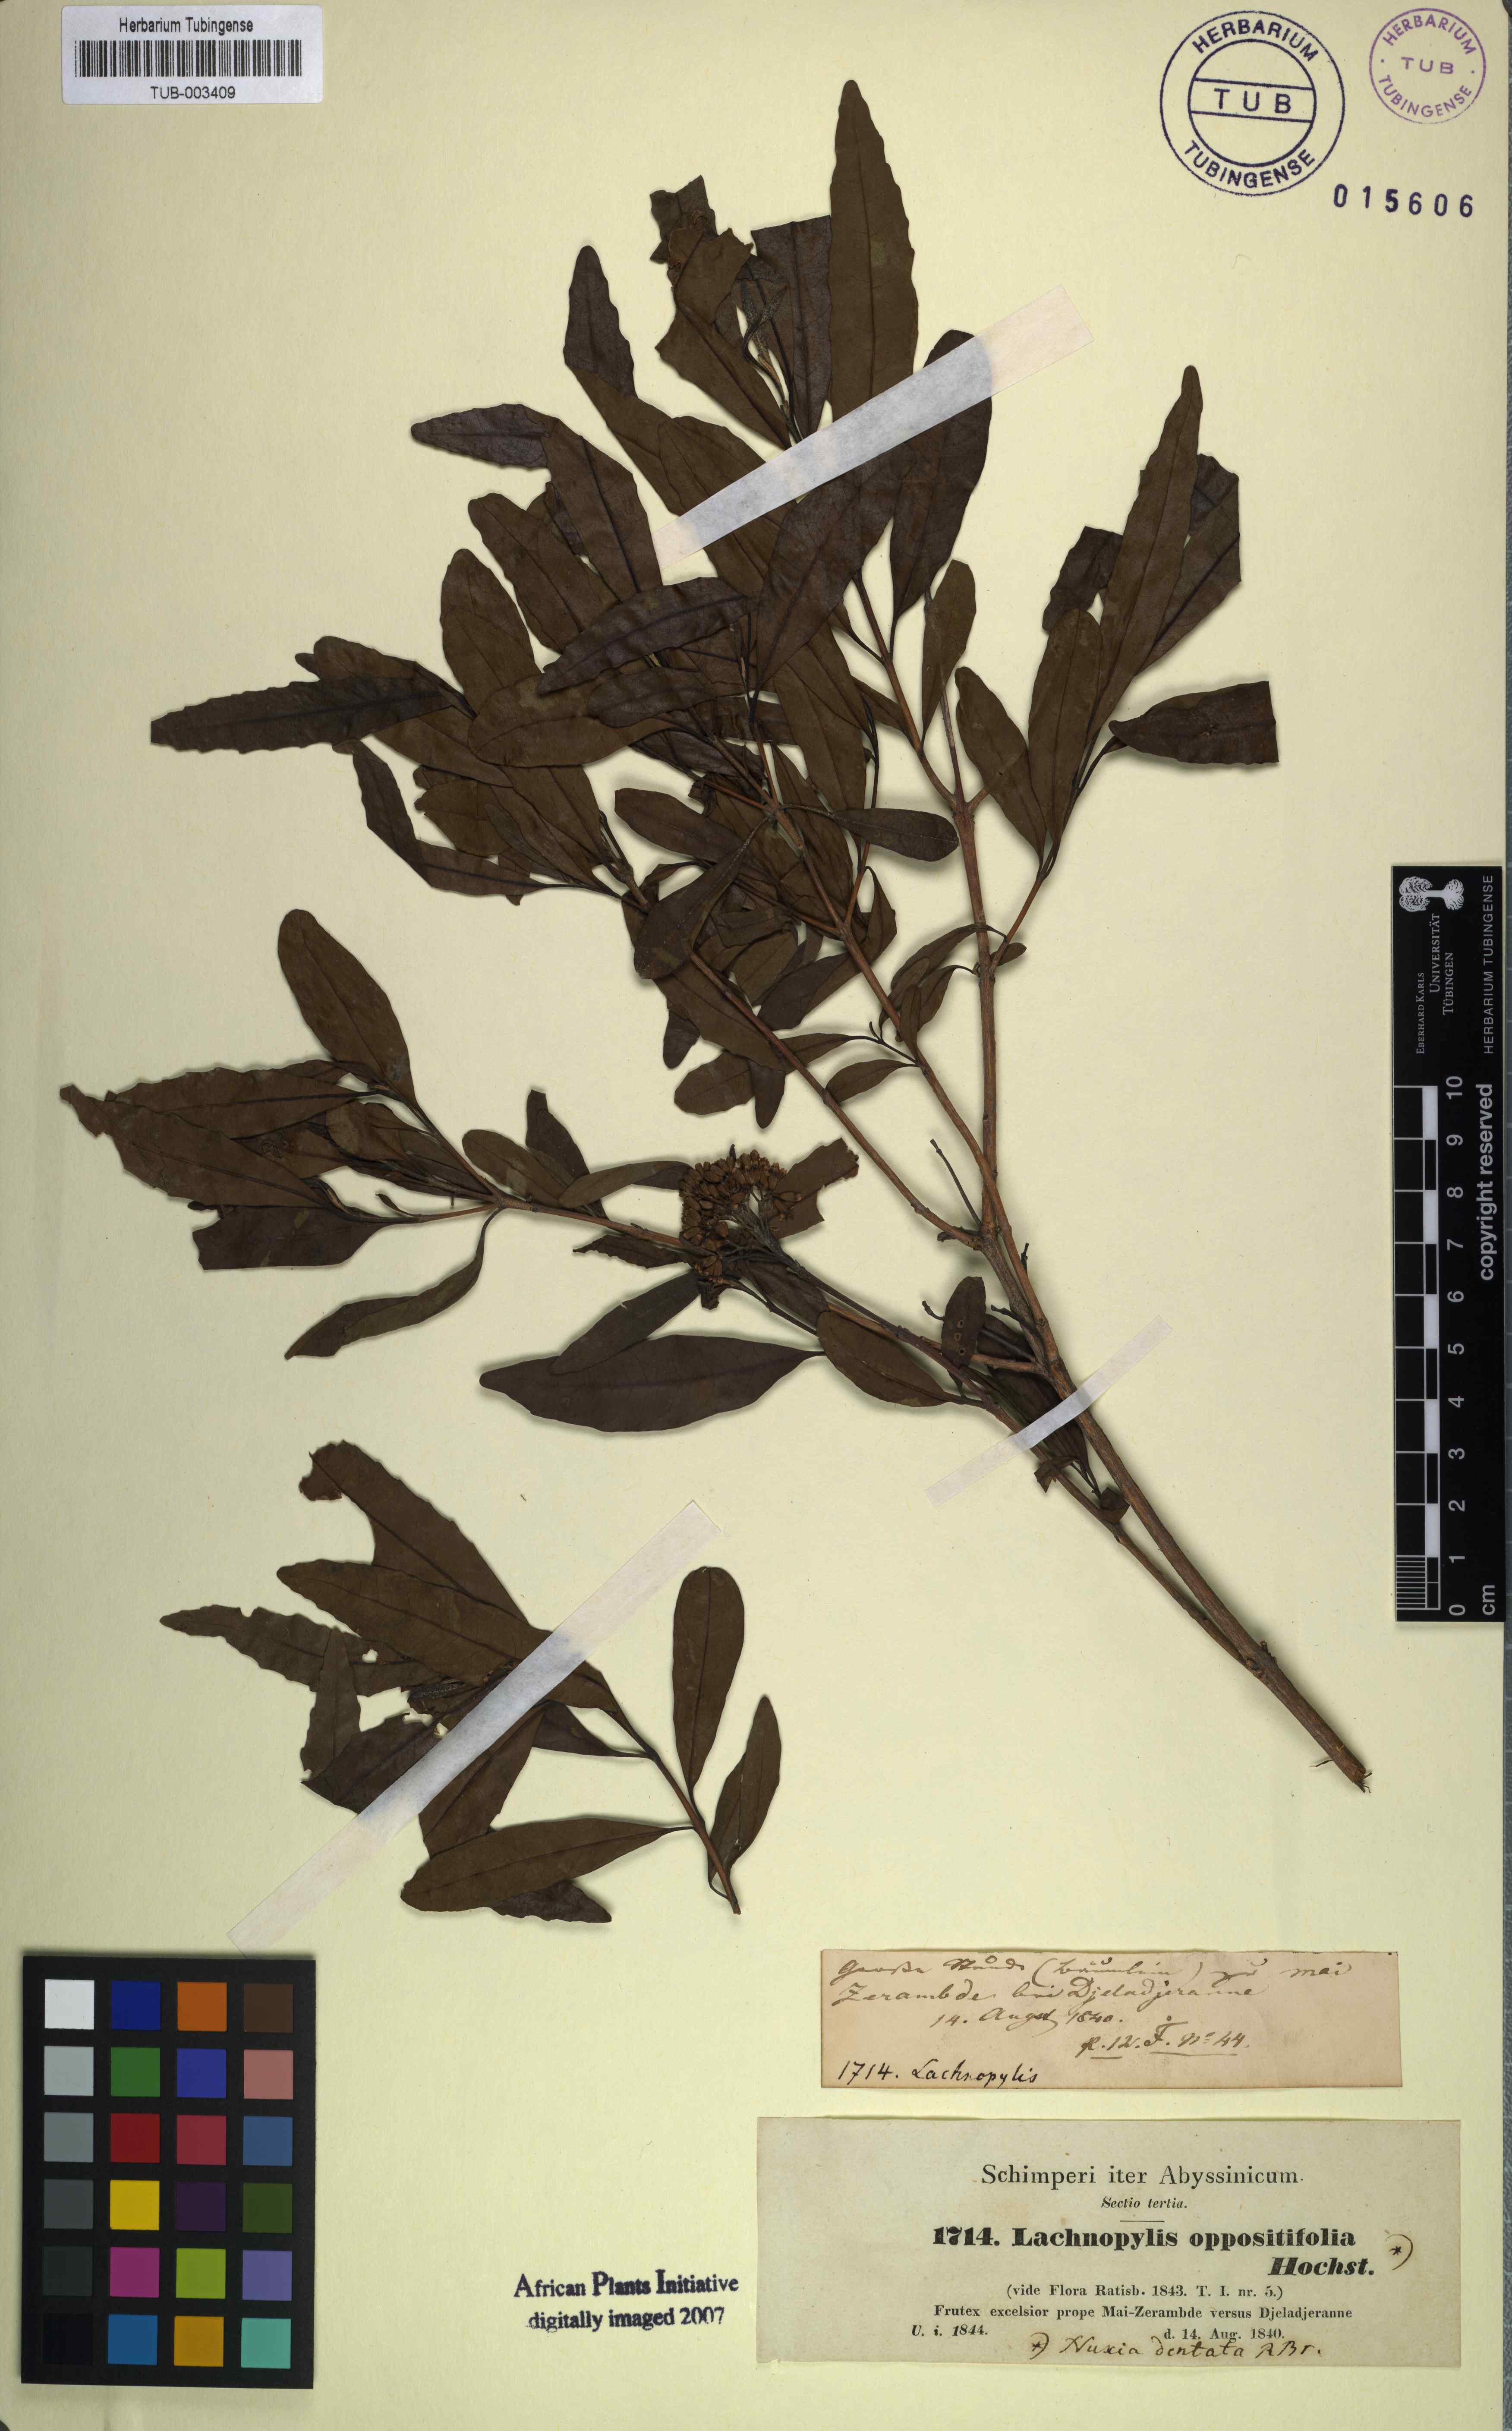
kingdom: Plantae
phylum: Tracheophyta
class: Magnoliopsida
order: Lamiales
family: Stilbaceae
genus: Nuxia
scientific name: Nuxia oppositifolia
